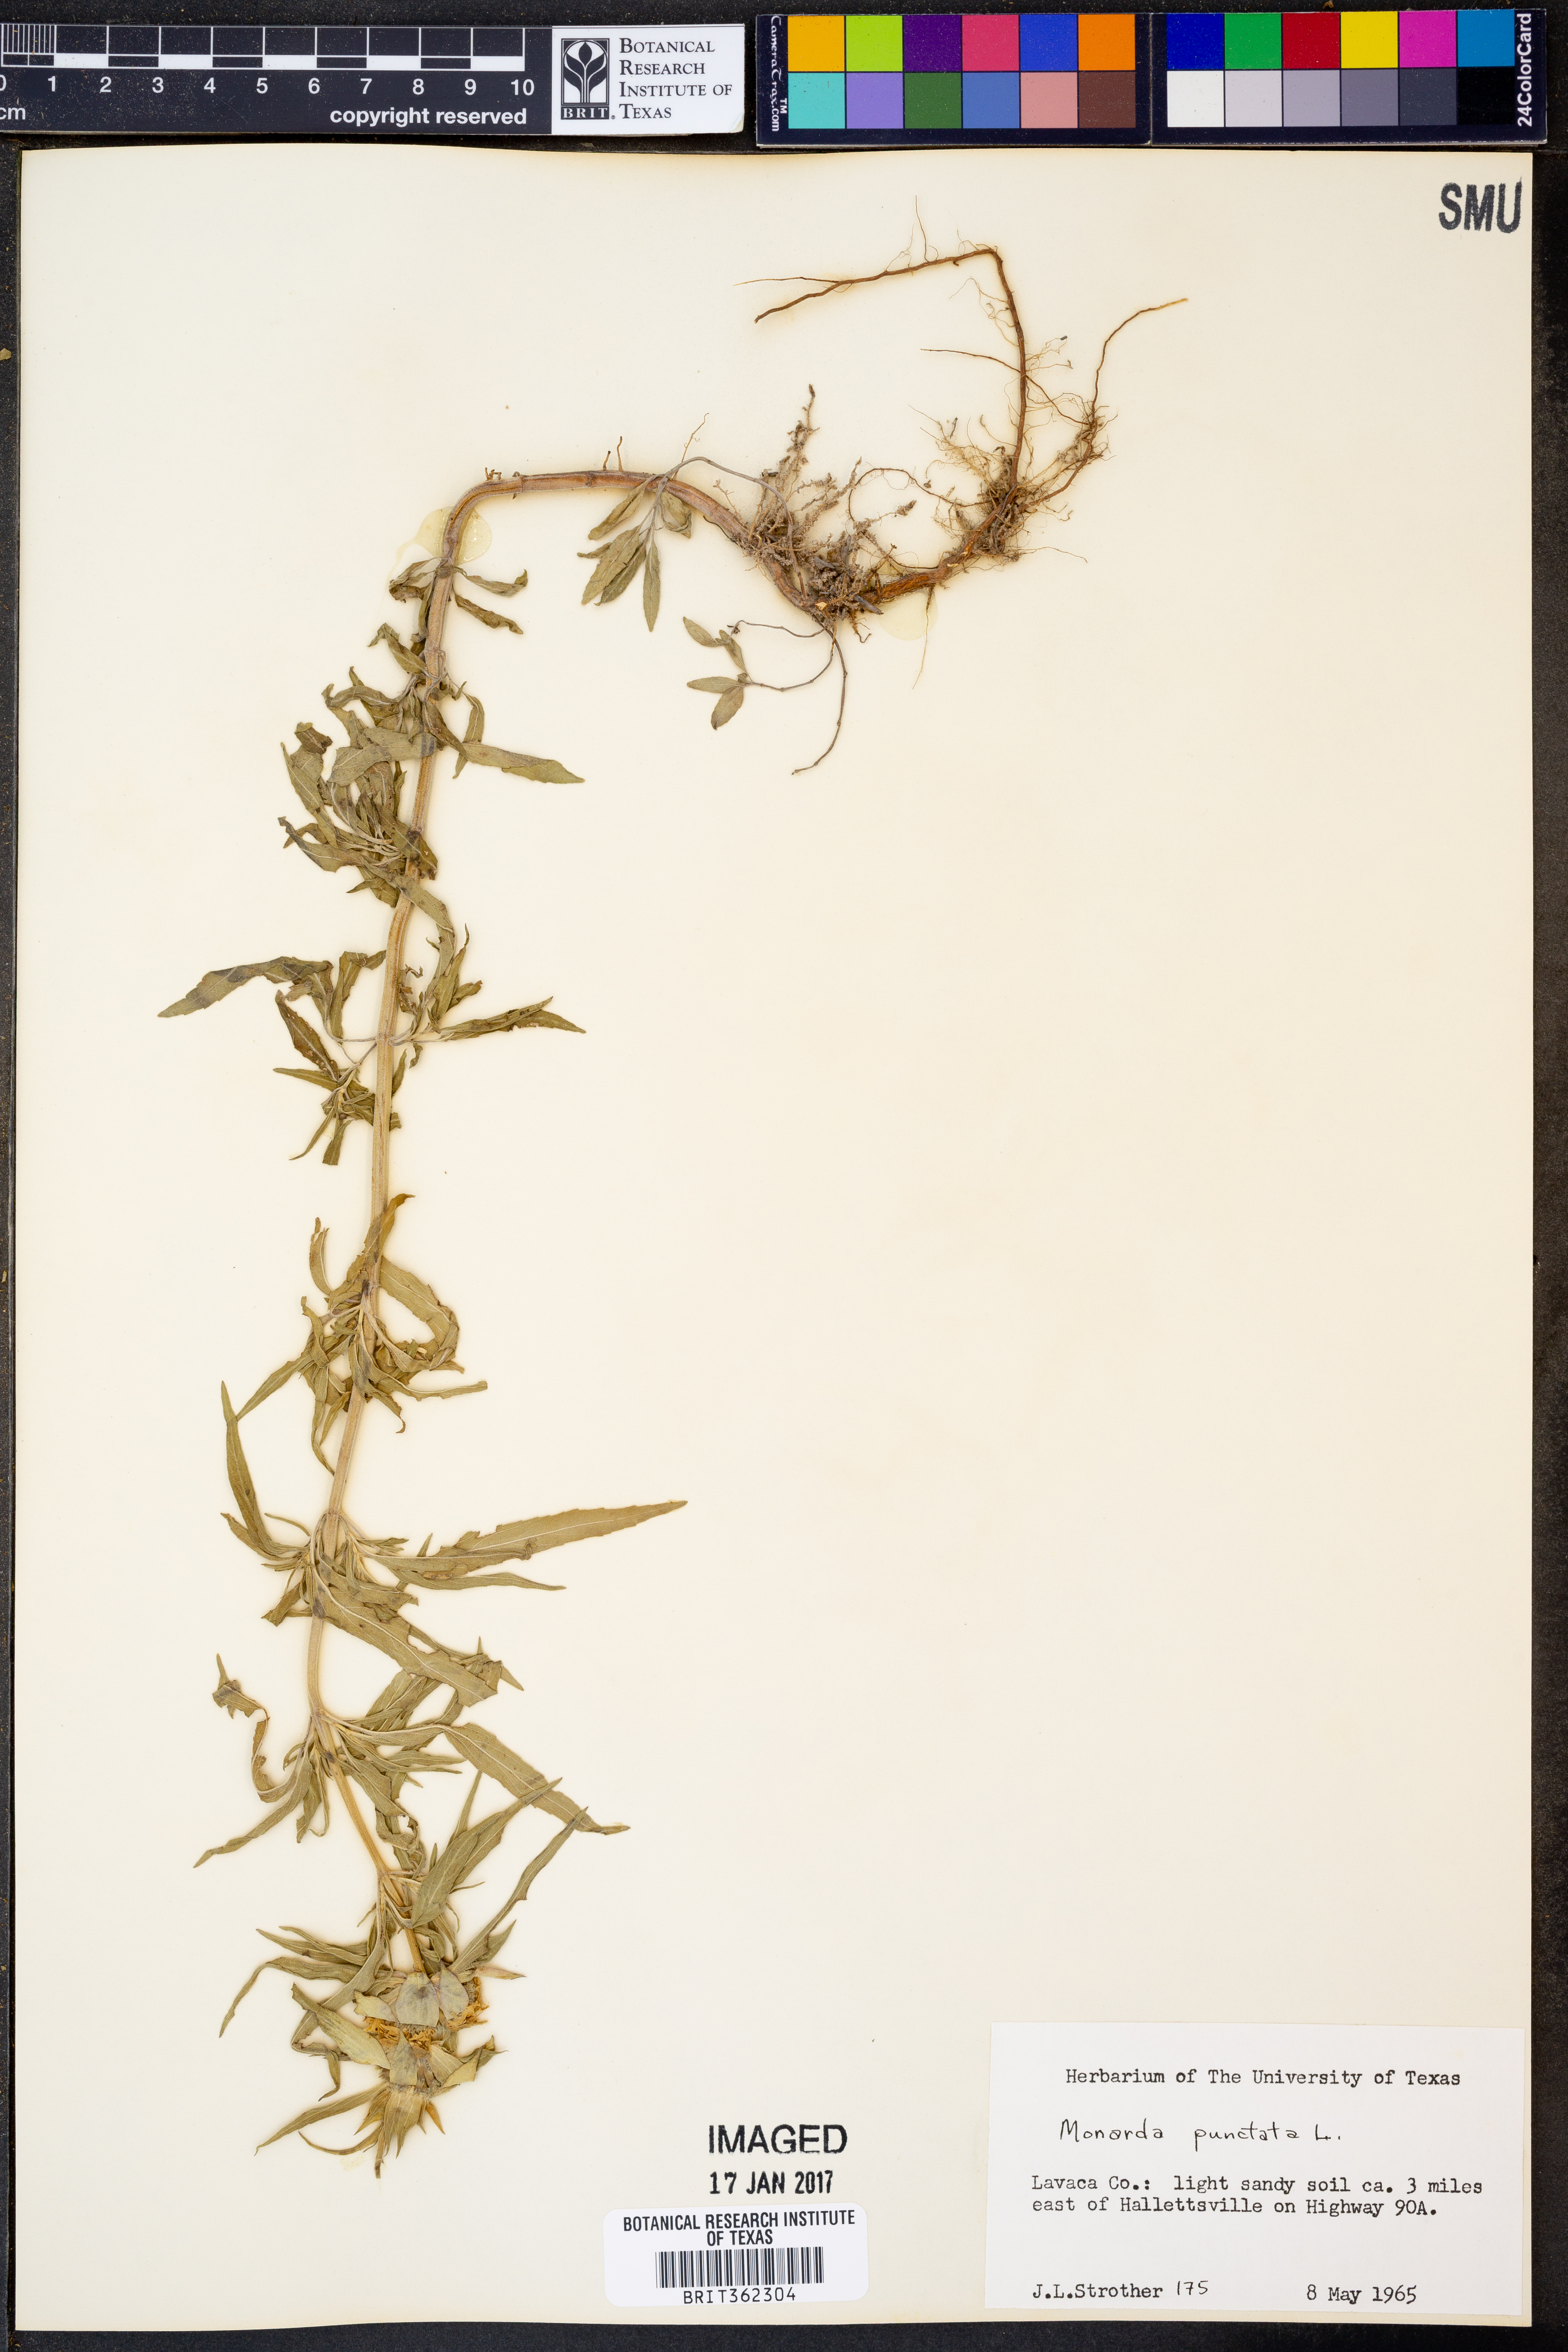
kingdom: Plantae
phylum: Tracheophyta
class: Magnoliopsida
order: Lamiales
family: Lamiaceae
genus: Monarda
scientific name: Monarda punctata
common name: Dotted monarda
